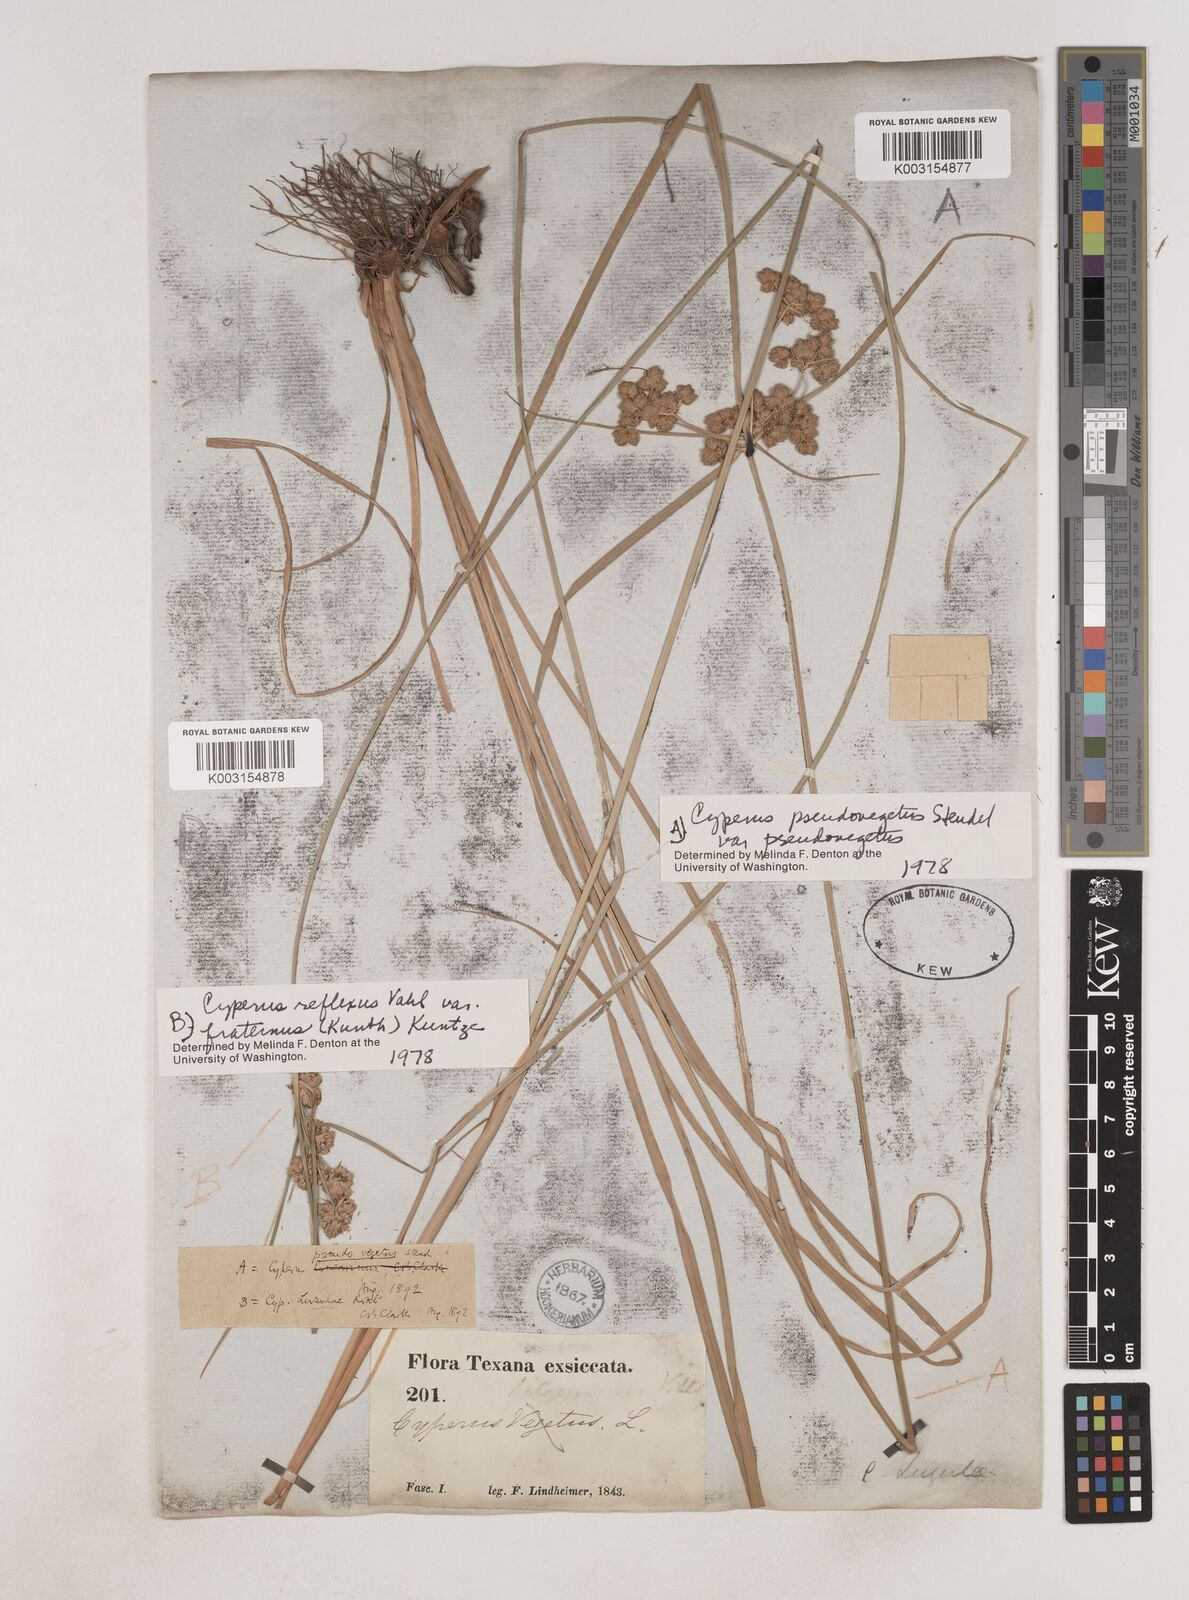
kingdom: Plantae
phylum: Tracheophyta
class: Liliopsida
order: Poales
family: Cyperaceae
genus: Cyperus
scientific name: Cyperus reflexus
